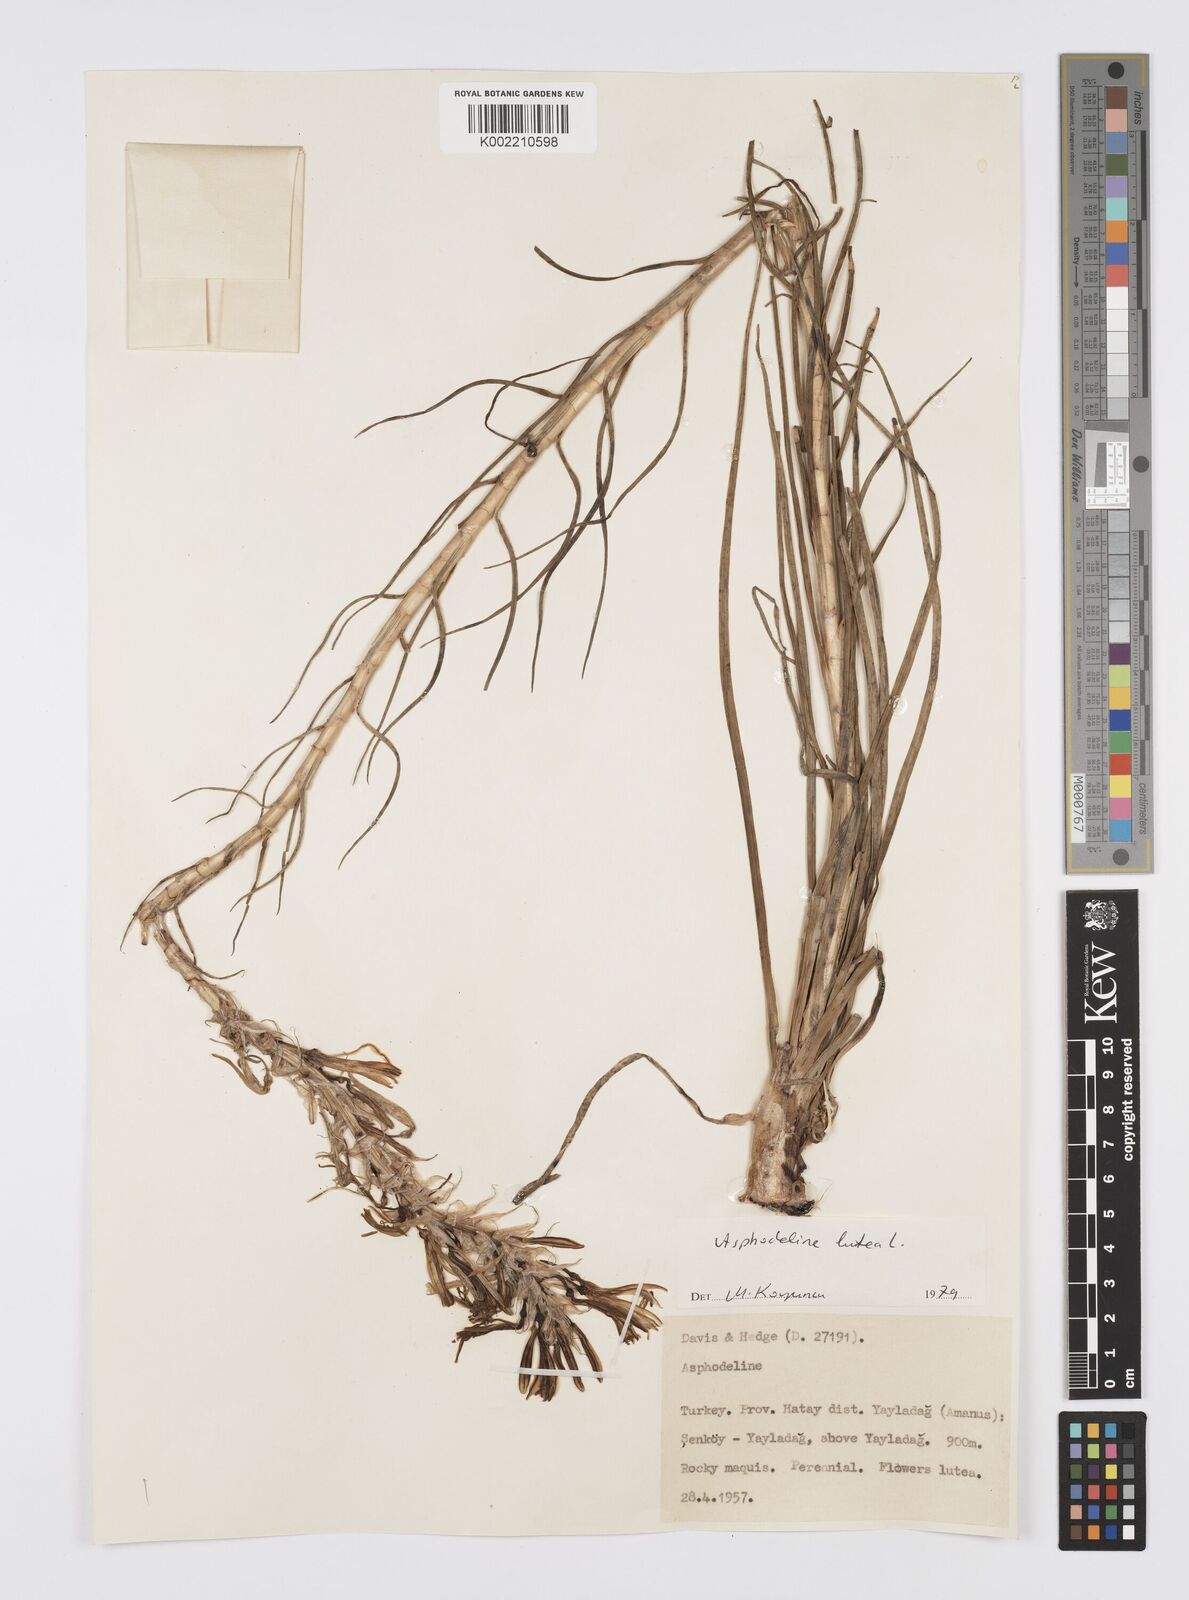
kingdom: Plantae
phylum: Tracheophyta
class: Liliopsida
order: Asparagales
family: Asphodelaceae
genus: Asphodeline
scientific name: Asphodeline lutea
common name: Yellow asphodel
